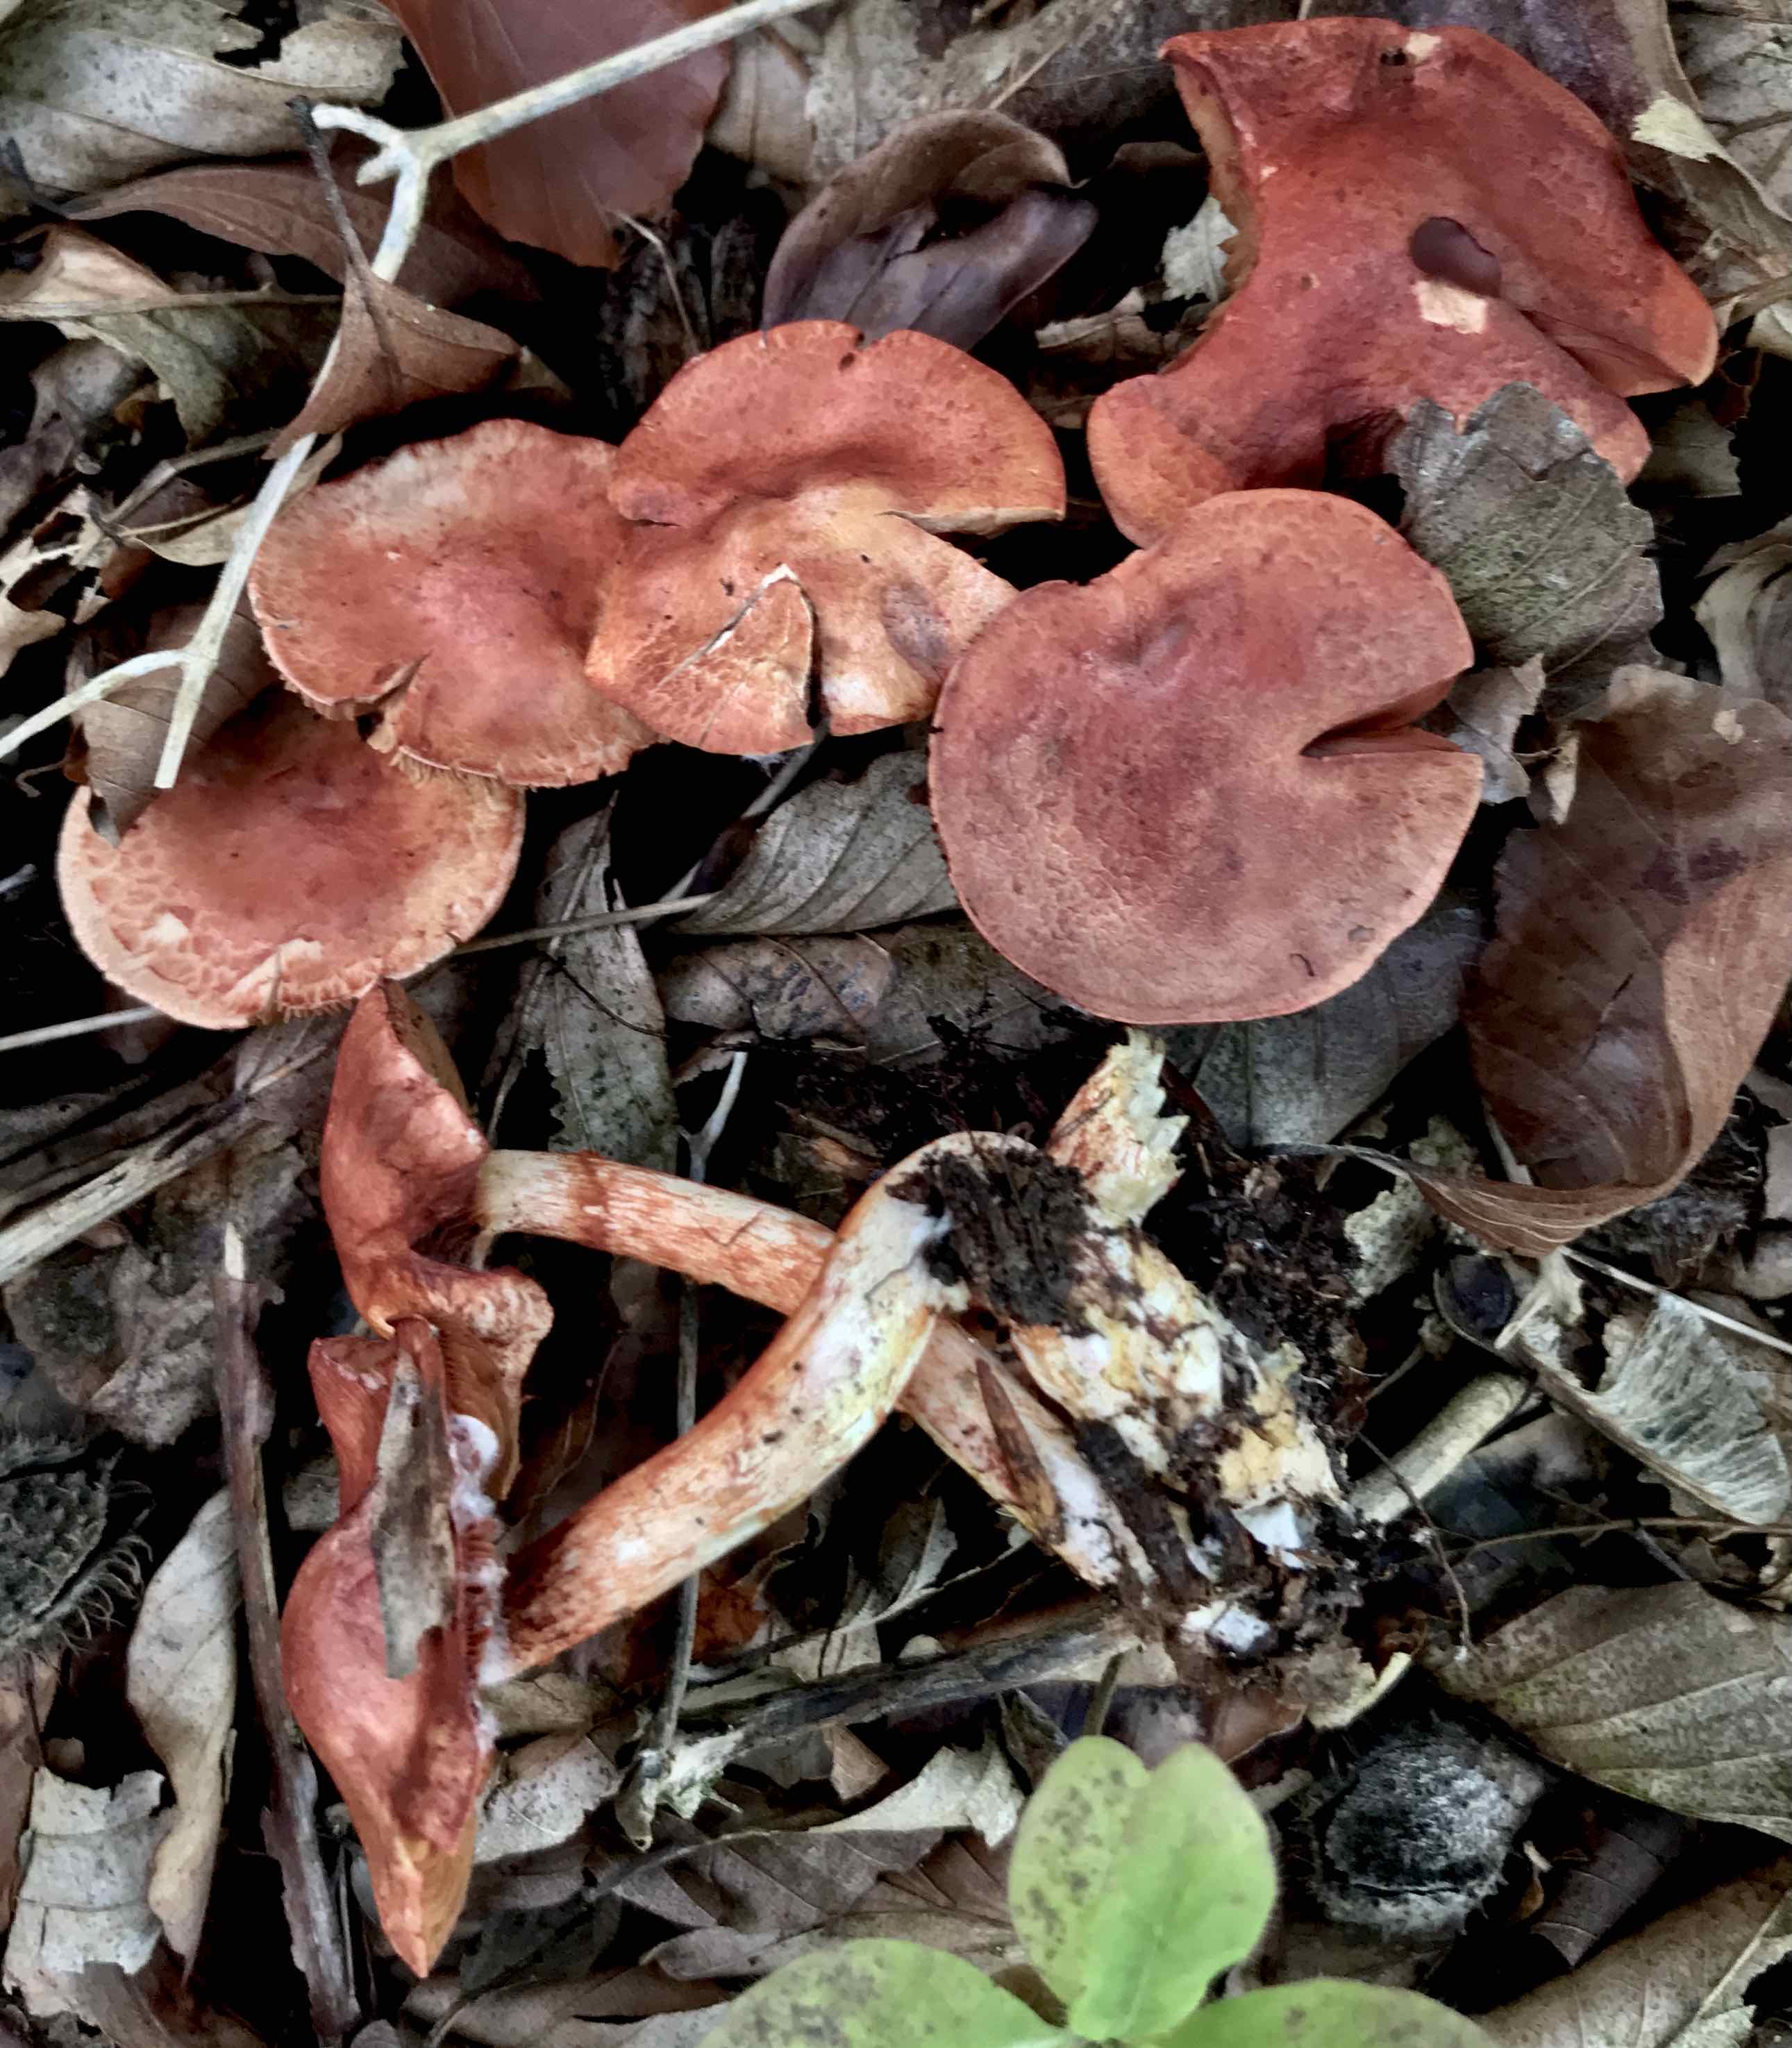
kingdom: Fungi
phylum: Basidiomycota
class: Agaricomycetes
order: Agaricales
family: Cortinariaceae
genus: Cortinarius
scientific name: Cortinarius bolaris
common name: cinnoberskællet slørhat
